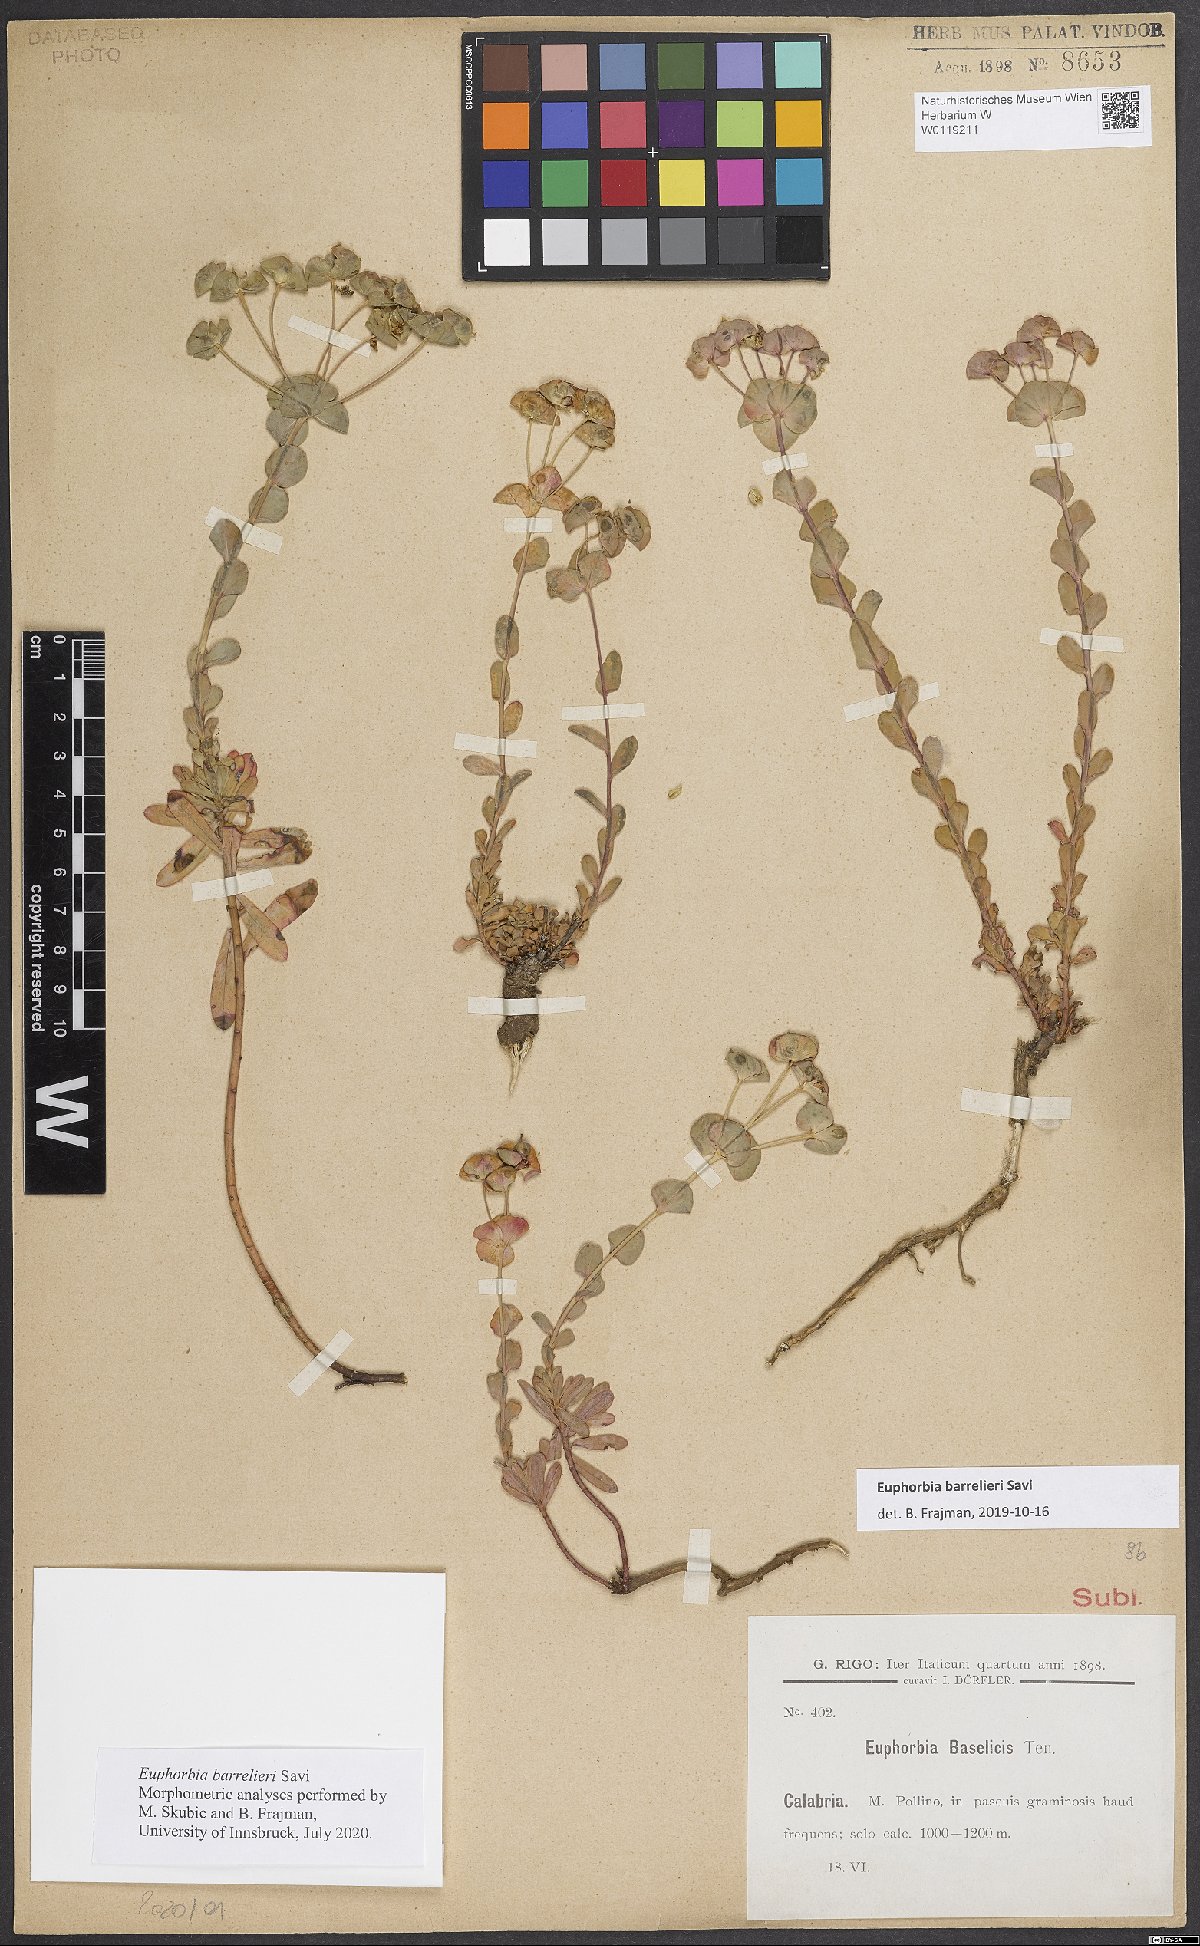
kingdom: Plantae
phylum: Tracheophyta
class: Magnoliopsida
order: Malpighiales
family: Euphorbiaceae
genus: Euphorbia
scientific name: Euphorbia barrelieri
